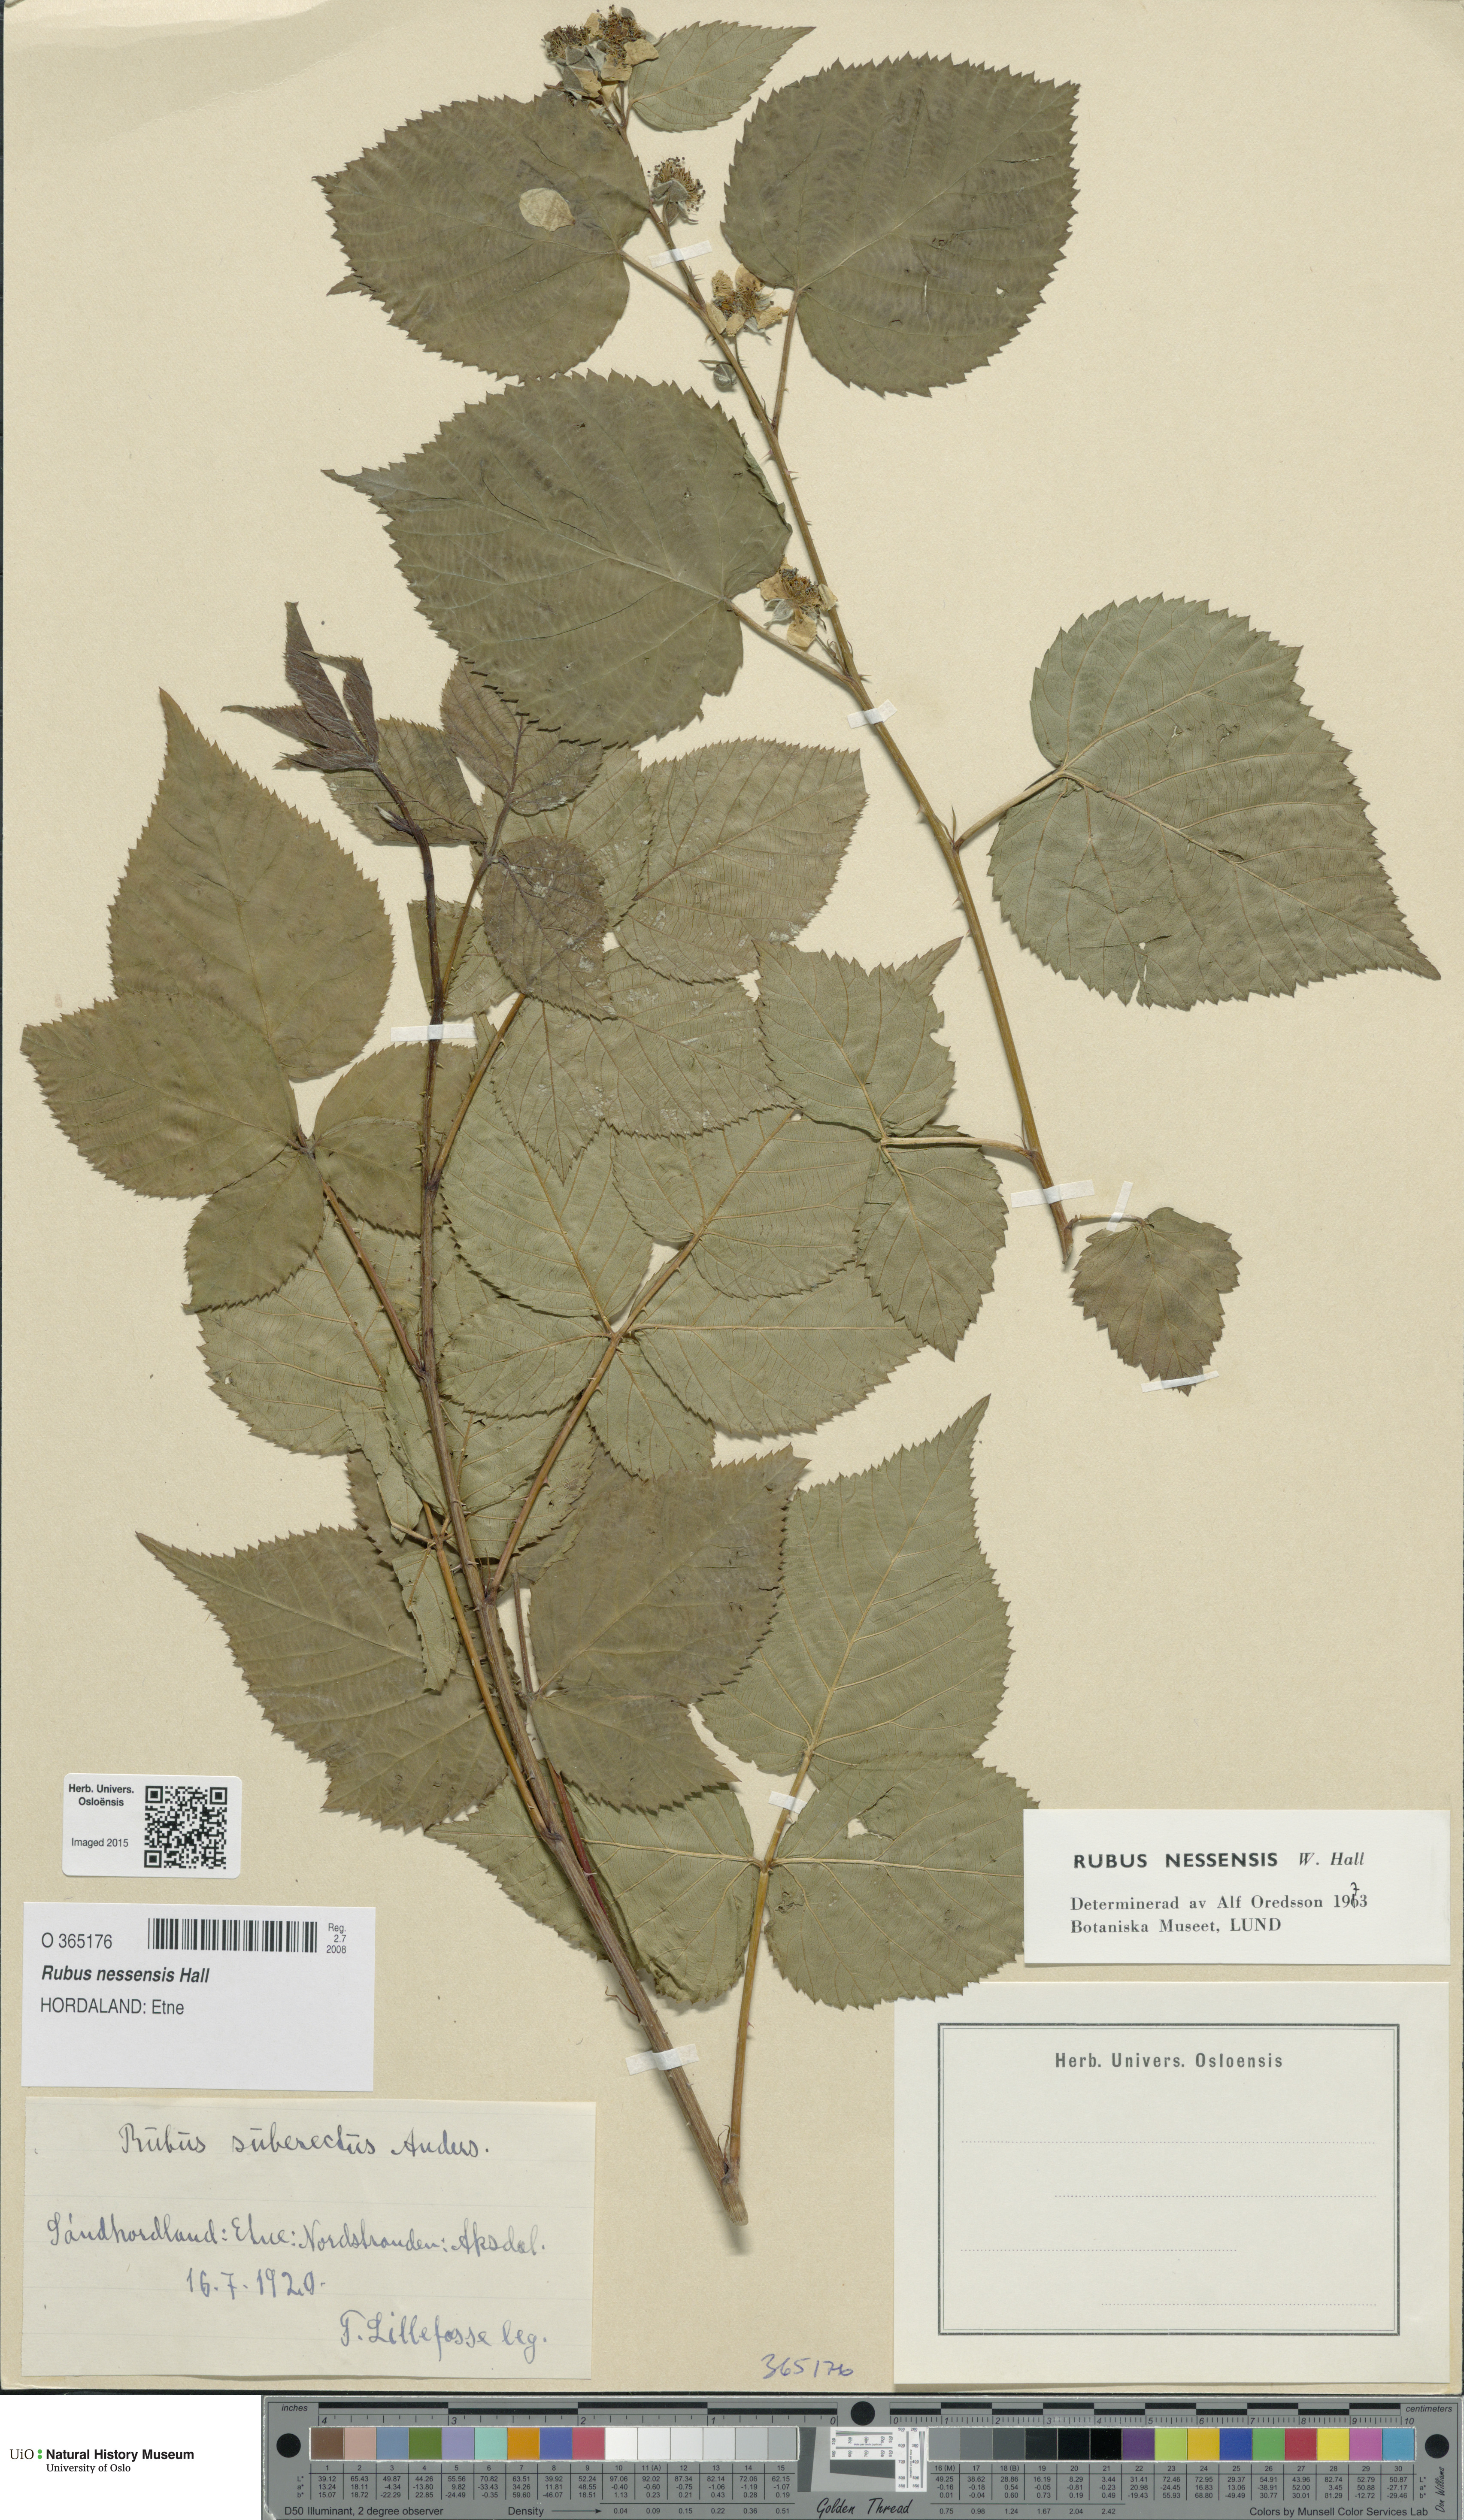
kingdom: Plantae
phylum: Tracheophyta
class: Magnoliopsida
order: Rosales
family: Rosaceae
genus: Rubus
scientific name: Rubus polonicus
